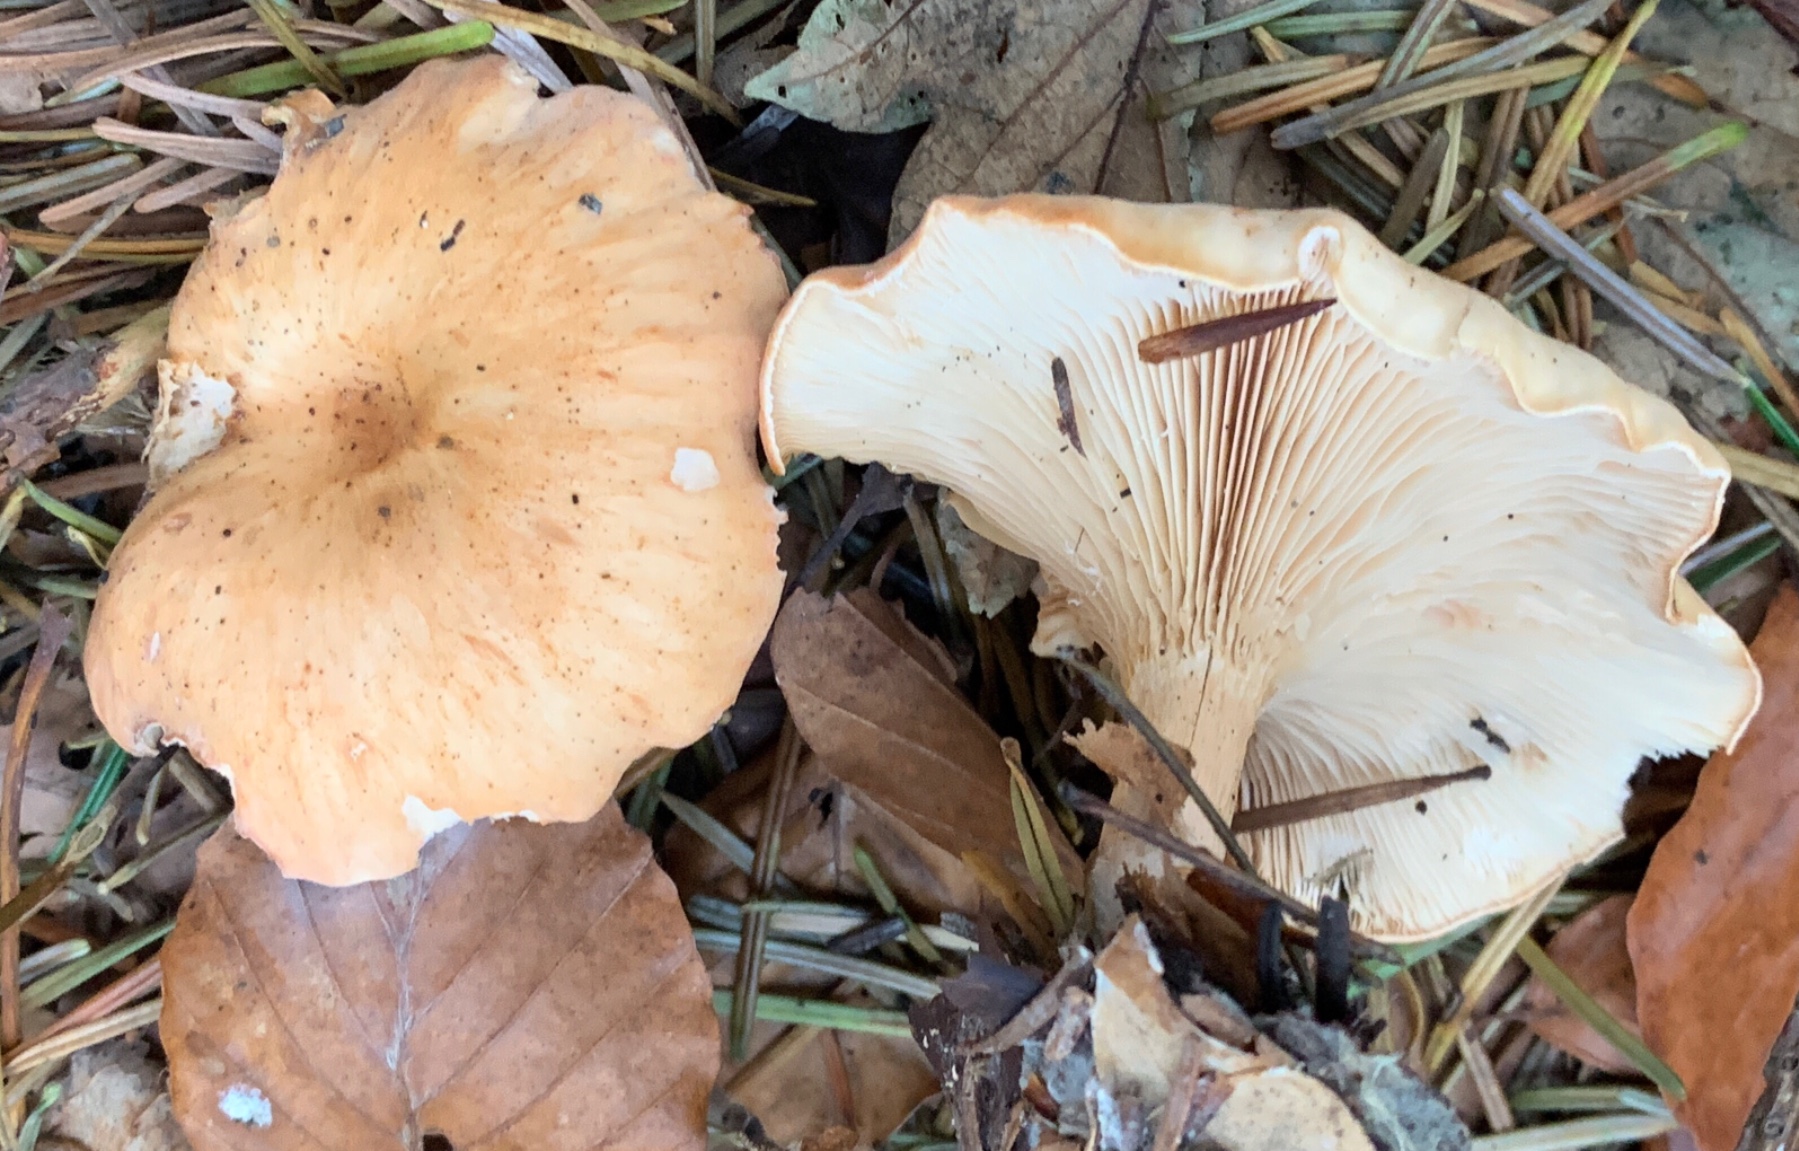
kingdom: Fungi
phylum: Basidiomycota
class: Agaricomycetes
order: Agaricales
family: Tricholomataceae
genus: Paralepista
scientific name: Paralepista flaccida
